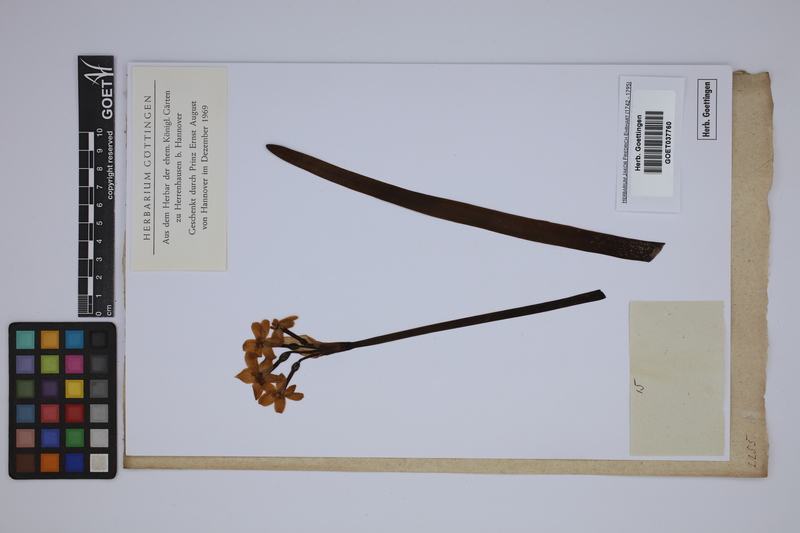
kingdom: Plantae
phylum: Tracheophyta
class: Liliopsida
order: Asparagales
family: Amaryllidaceae
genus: Narcissus
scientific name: Narcissus bulbocodium
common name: Hoop-petticoat daffodil
